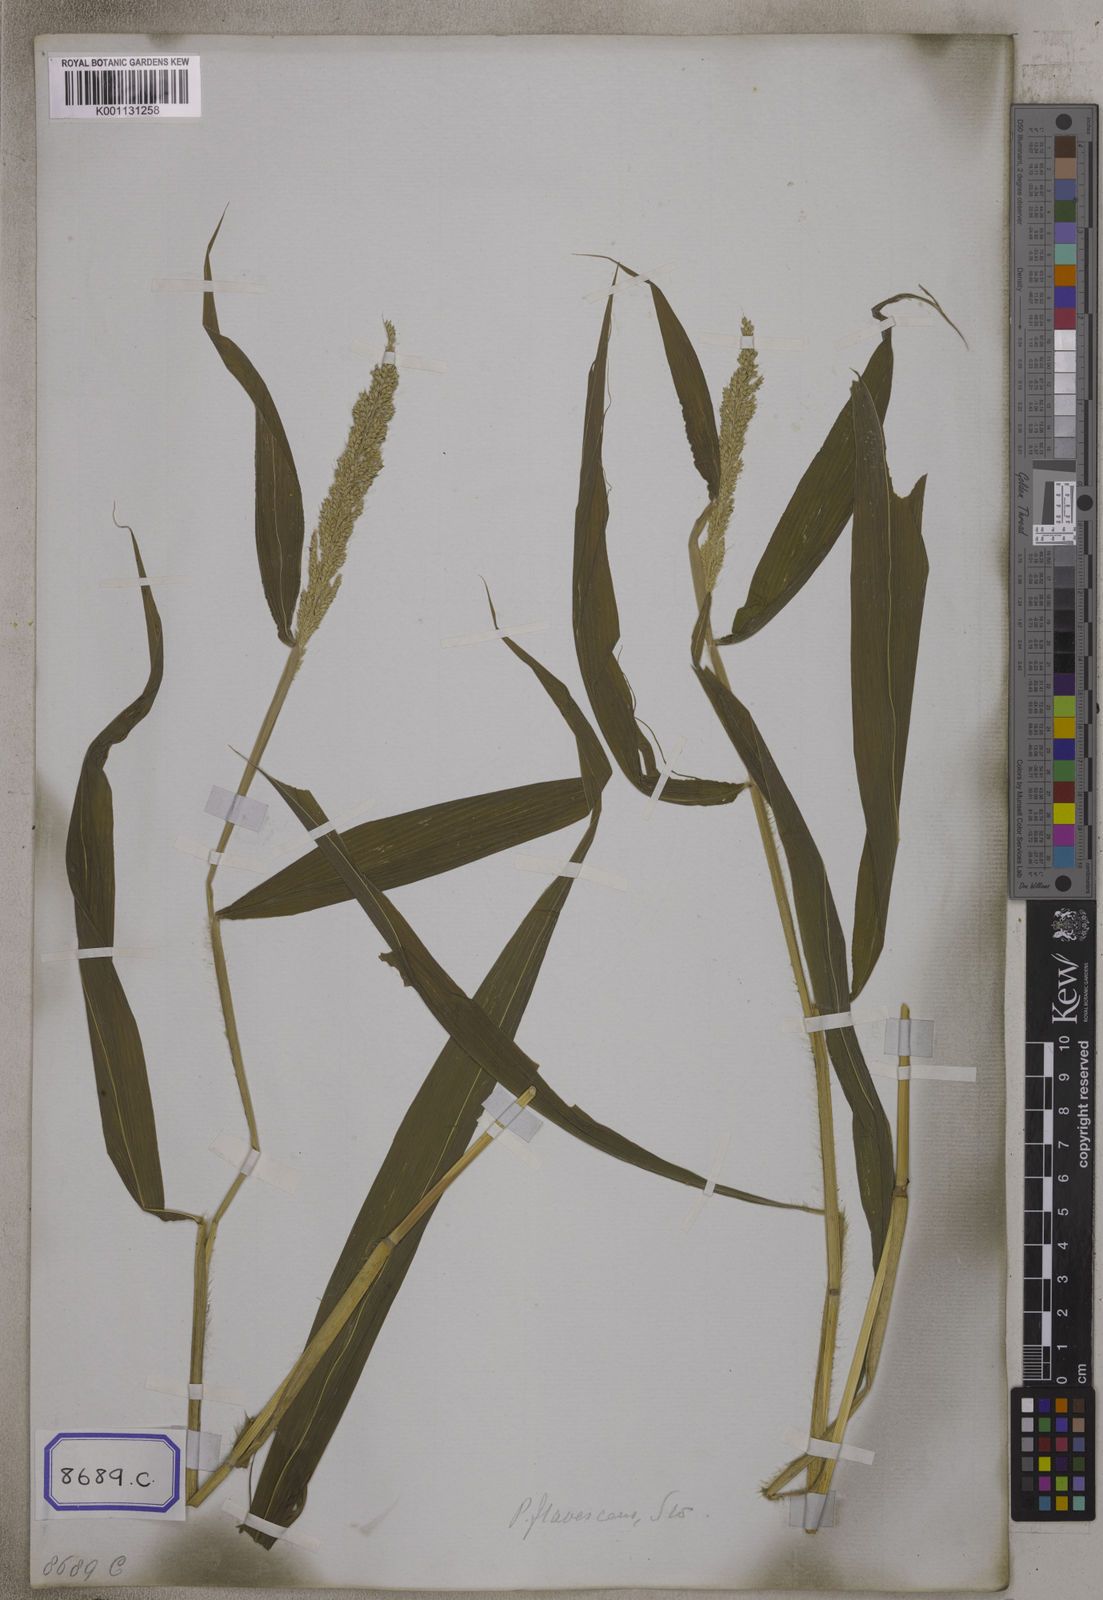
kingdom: Plantae
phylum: Tracheophyta
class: Liliopsida
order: Poales
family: Poaceae
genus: Setaria
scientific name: Setaria barbata
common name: East indian bristlegrass
